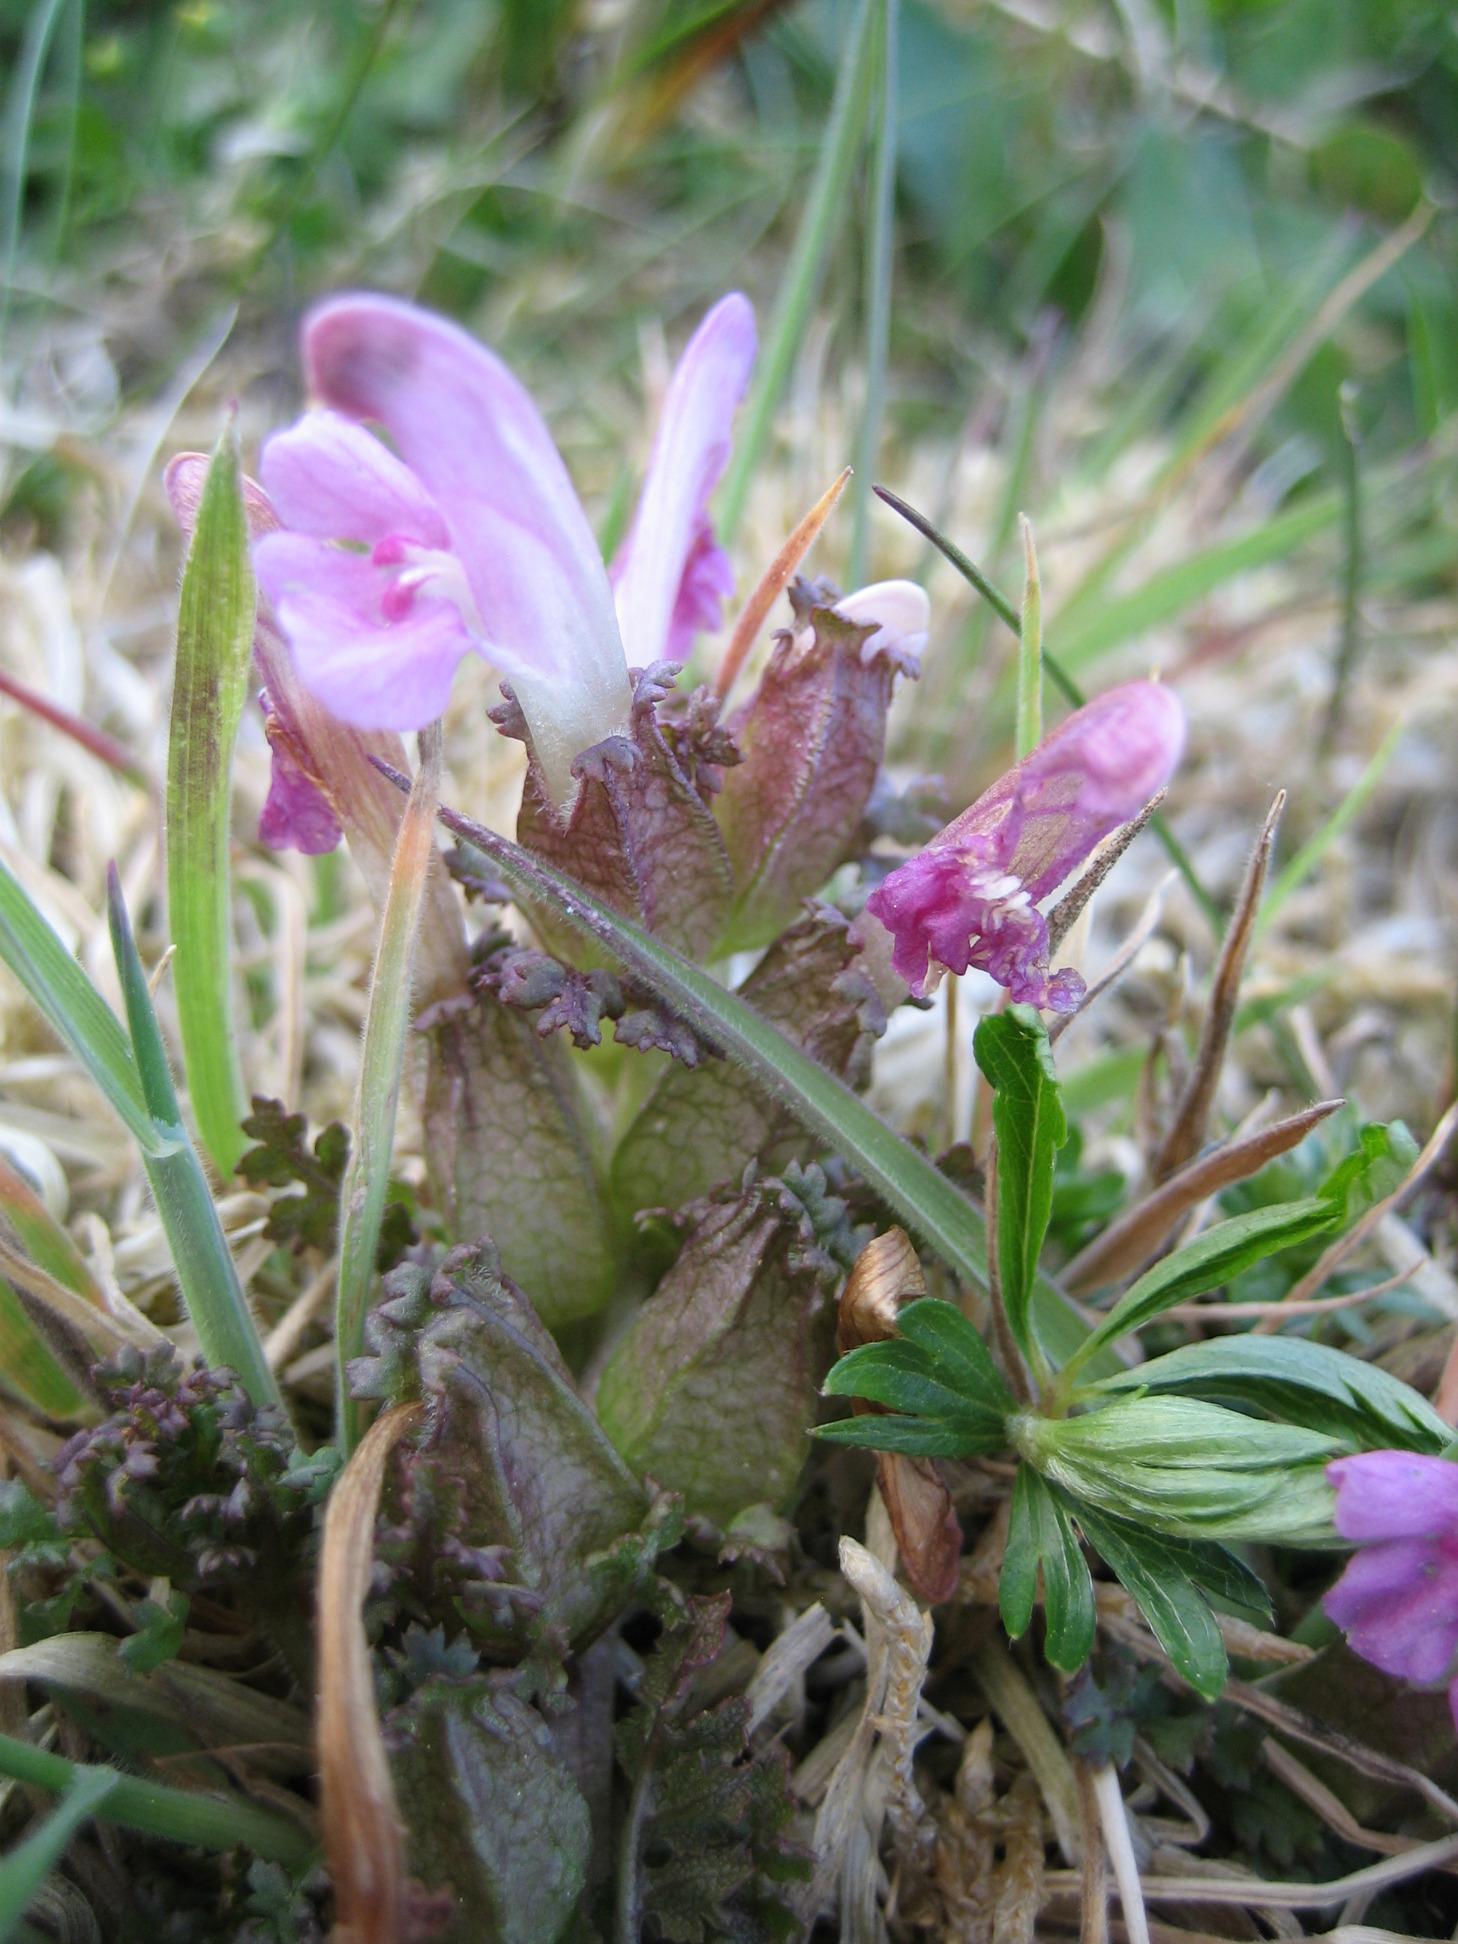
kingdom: Plantae
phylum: Tracheophyta
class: Magnoliopsida
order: Lamiales
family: Orobanchaceae
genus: Pedicularis
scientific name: Pedicularis sylvatica
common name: Mose-troldurt
